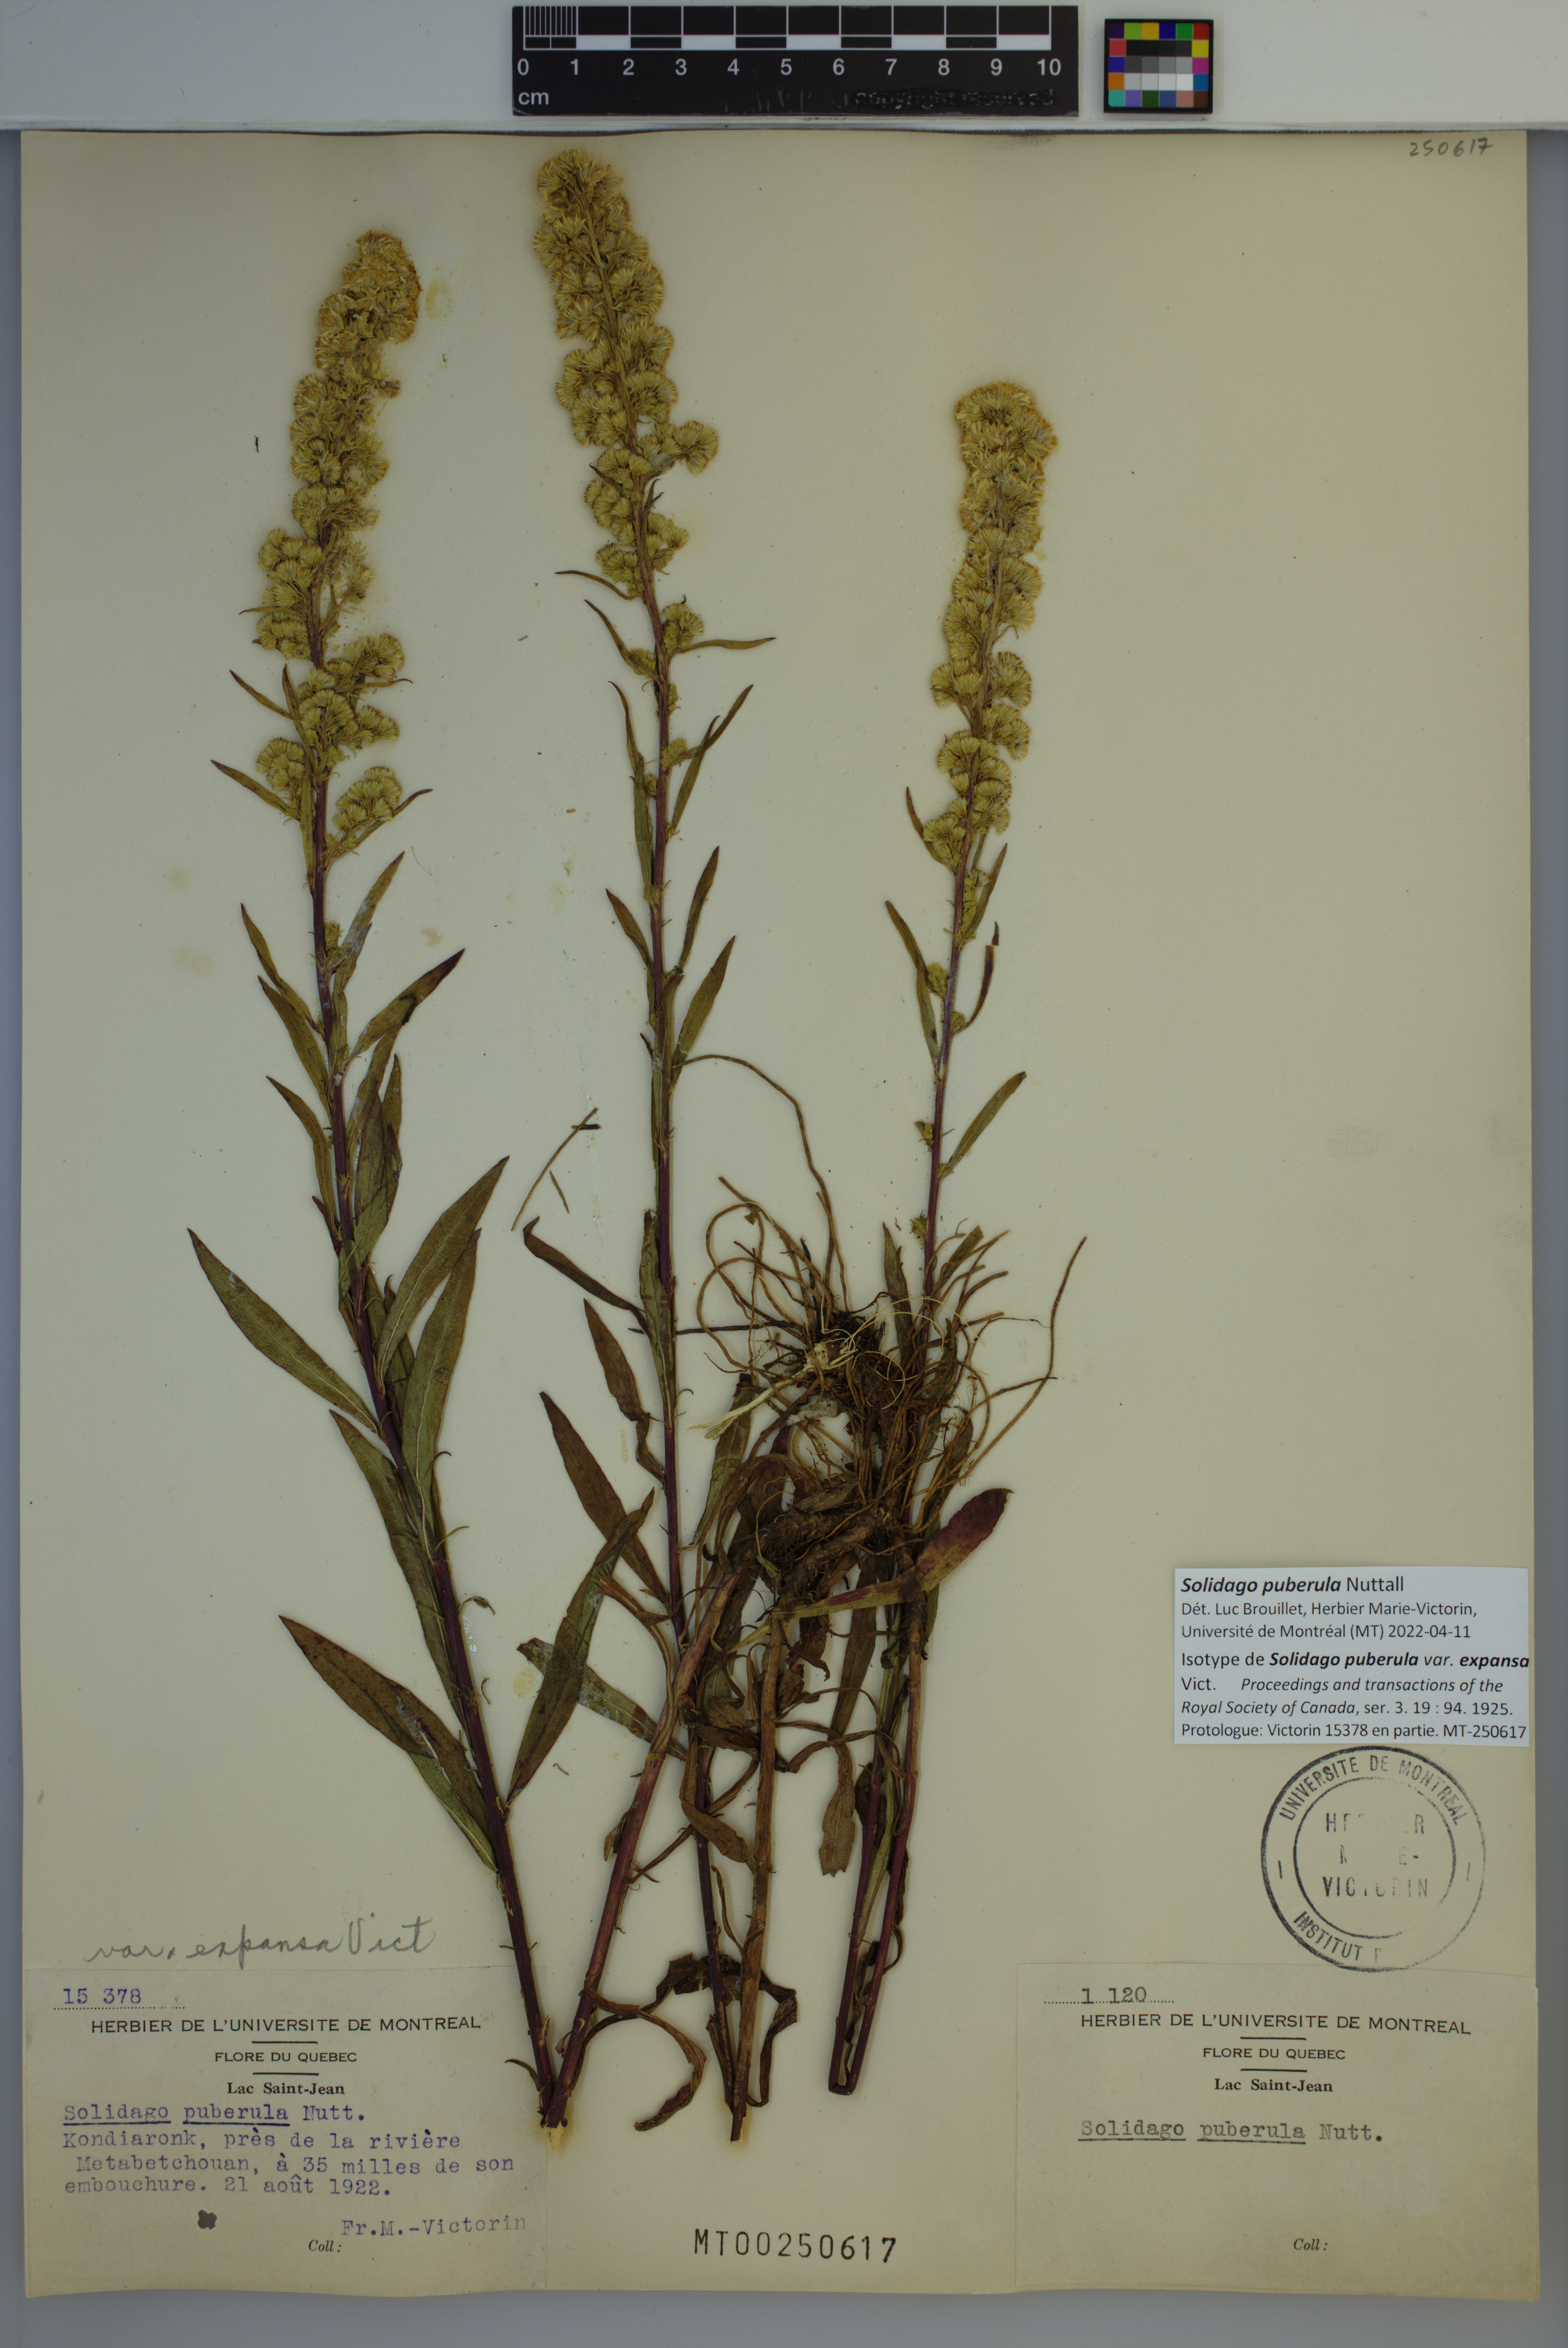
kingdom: Plantae
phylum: Tracheophyta
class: Magnoliopsida
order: Asterales
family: Asteraceae
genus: Solidago
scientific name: Solidago puberula
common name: Downy goldenrod
